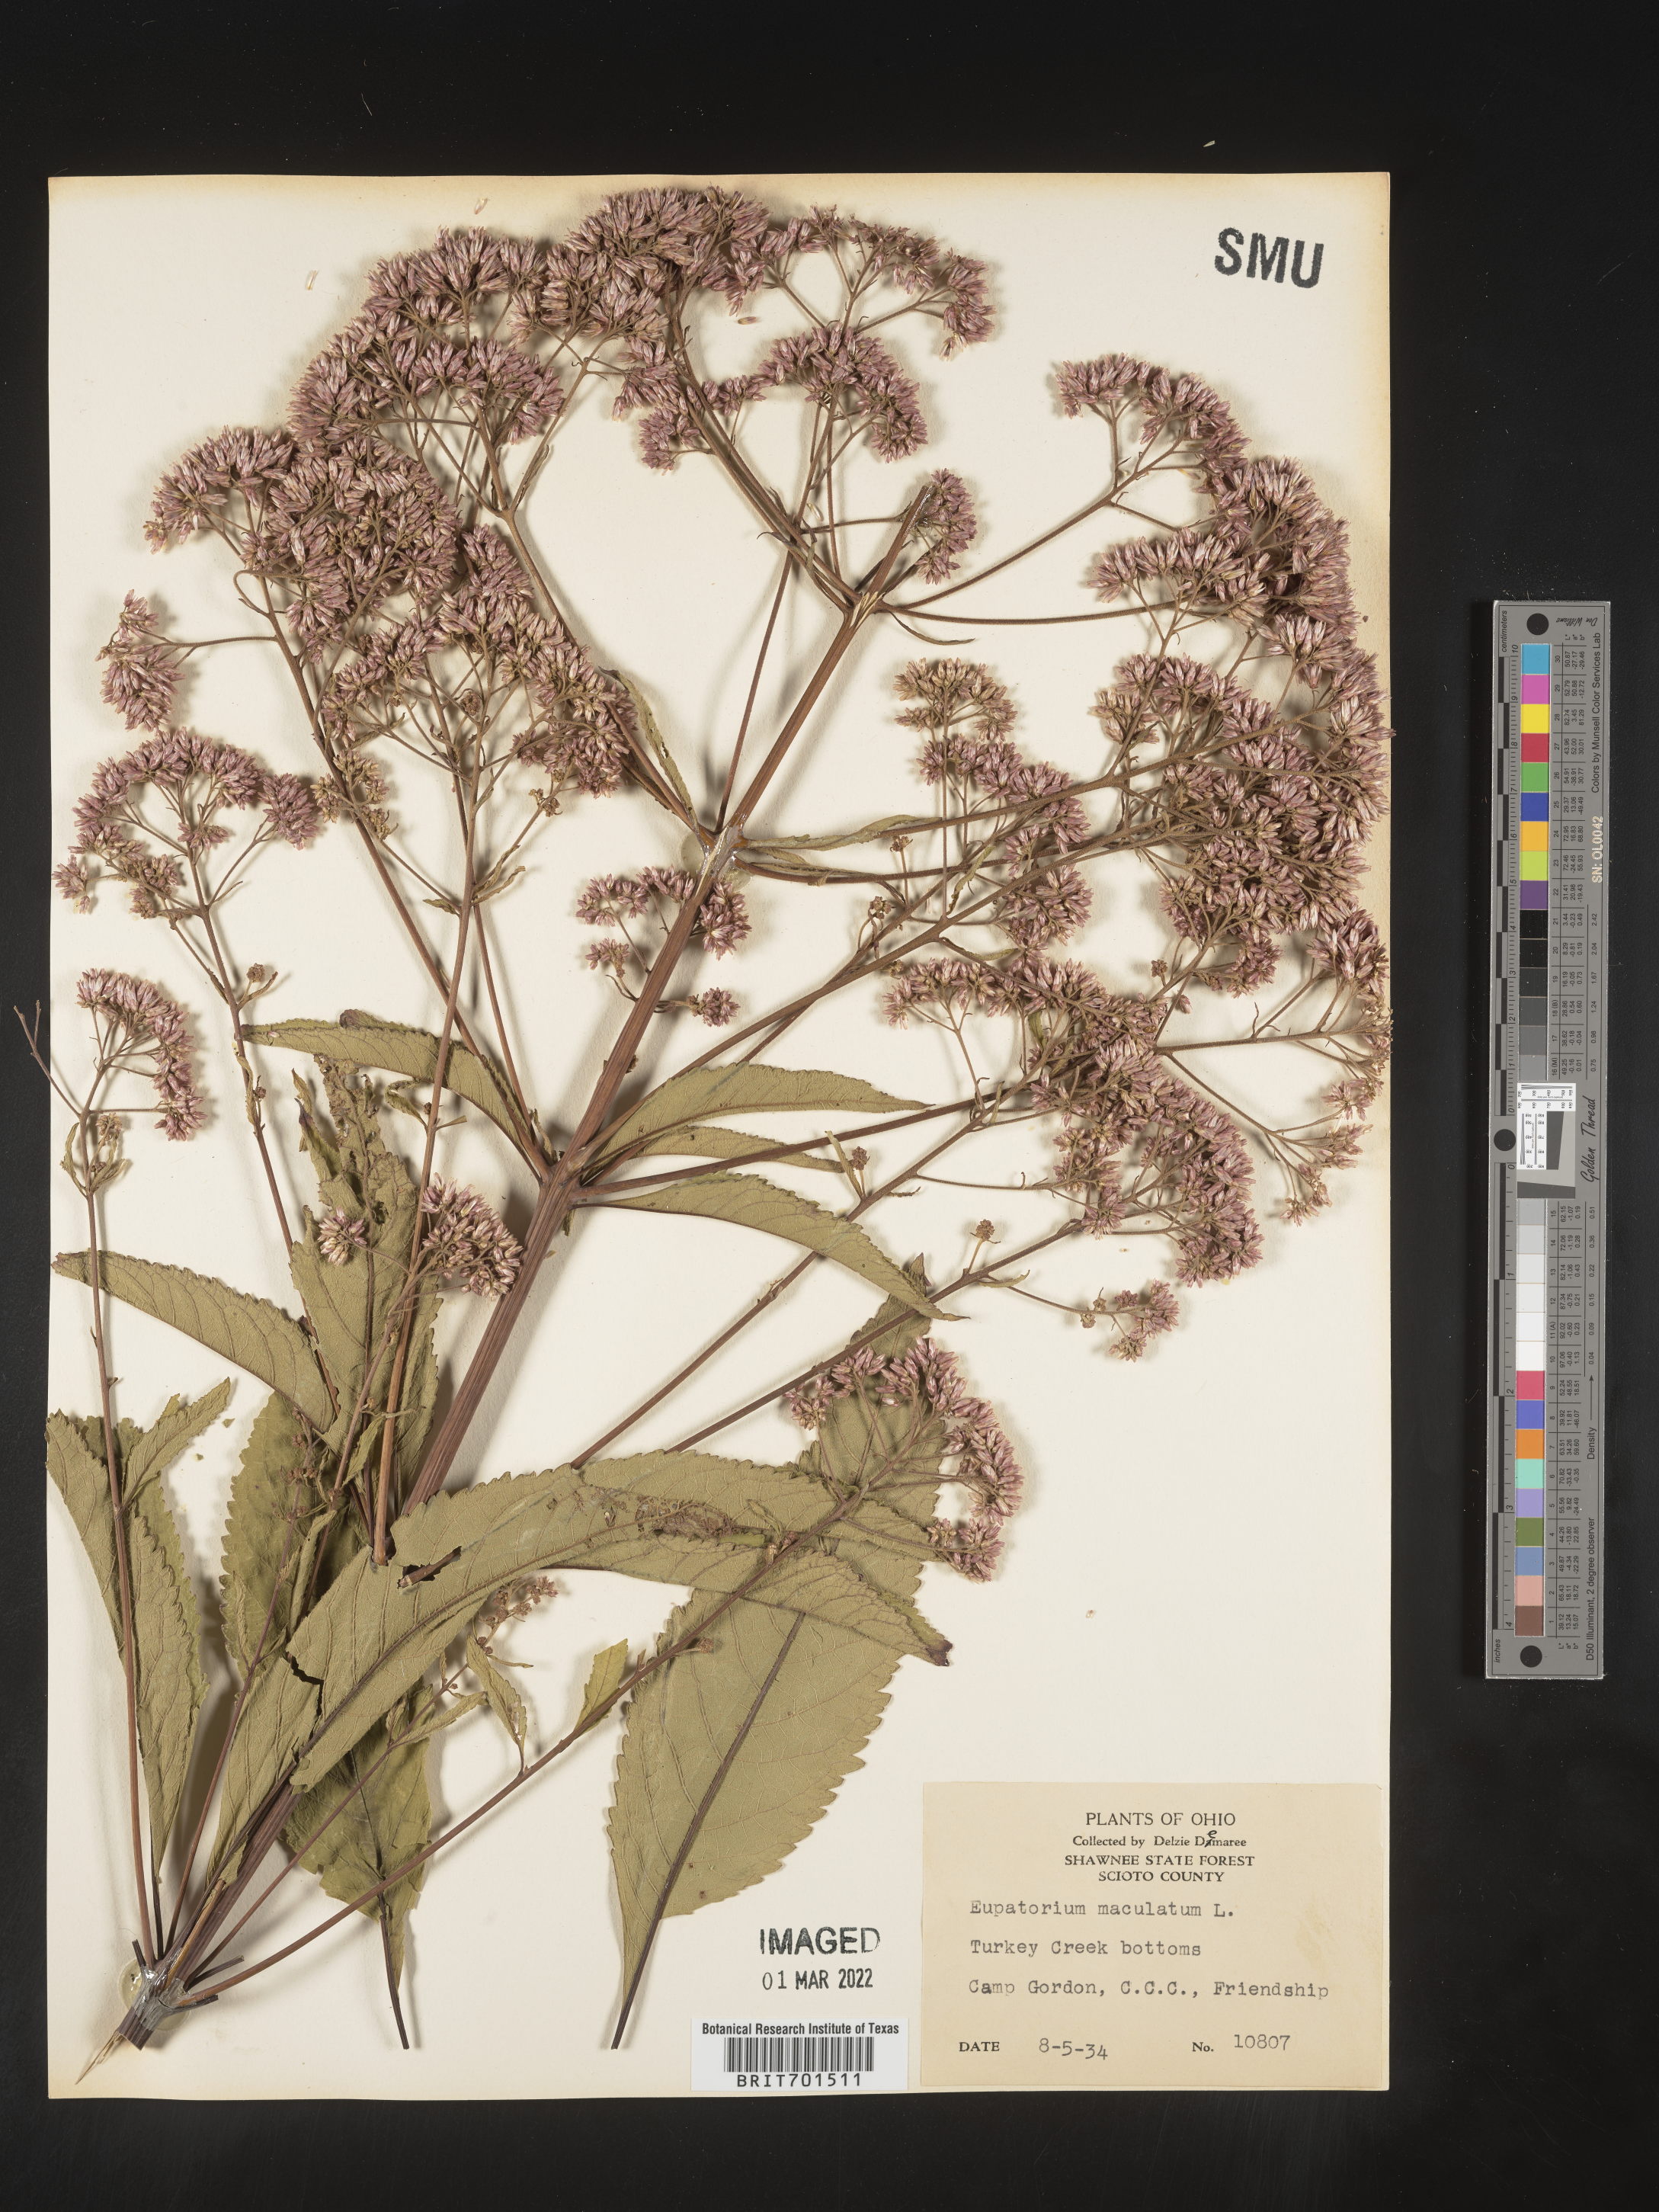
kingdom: Plantae
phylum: Tracheophyta
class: Magnoliopsida
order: Asterales
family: Asteraceae
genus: Eutrochium
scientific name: Eutrochium maculatum
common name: Spotted joe pye weed
